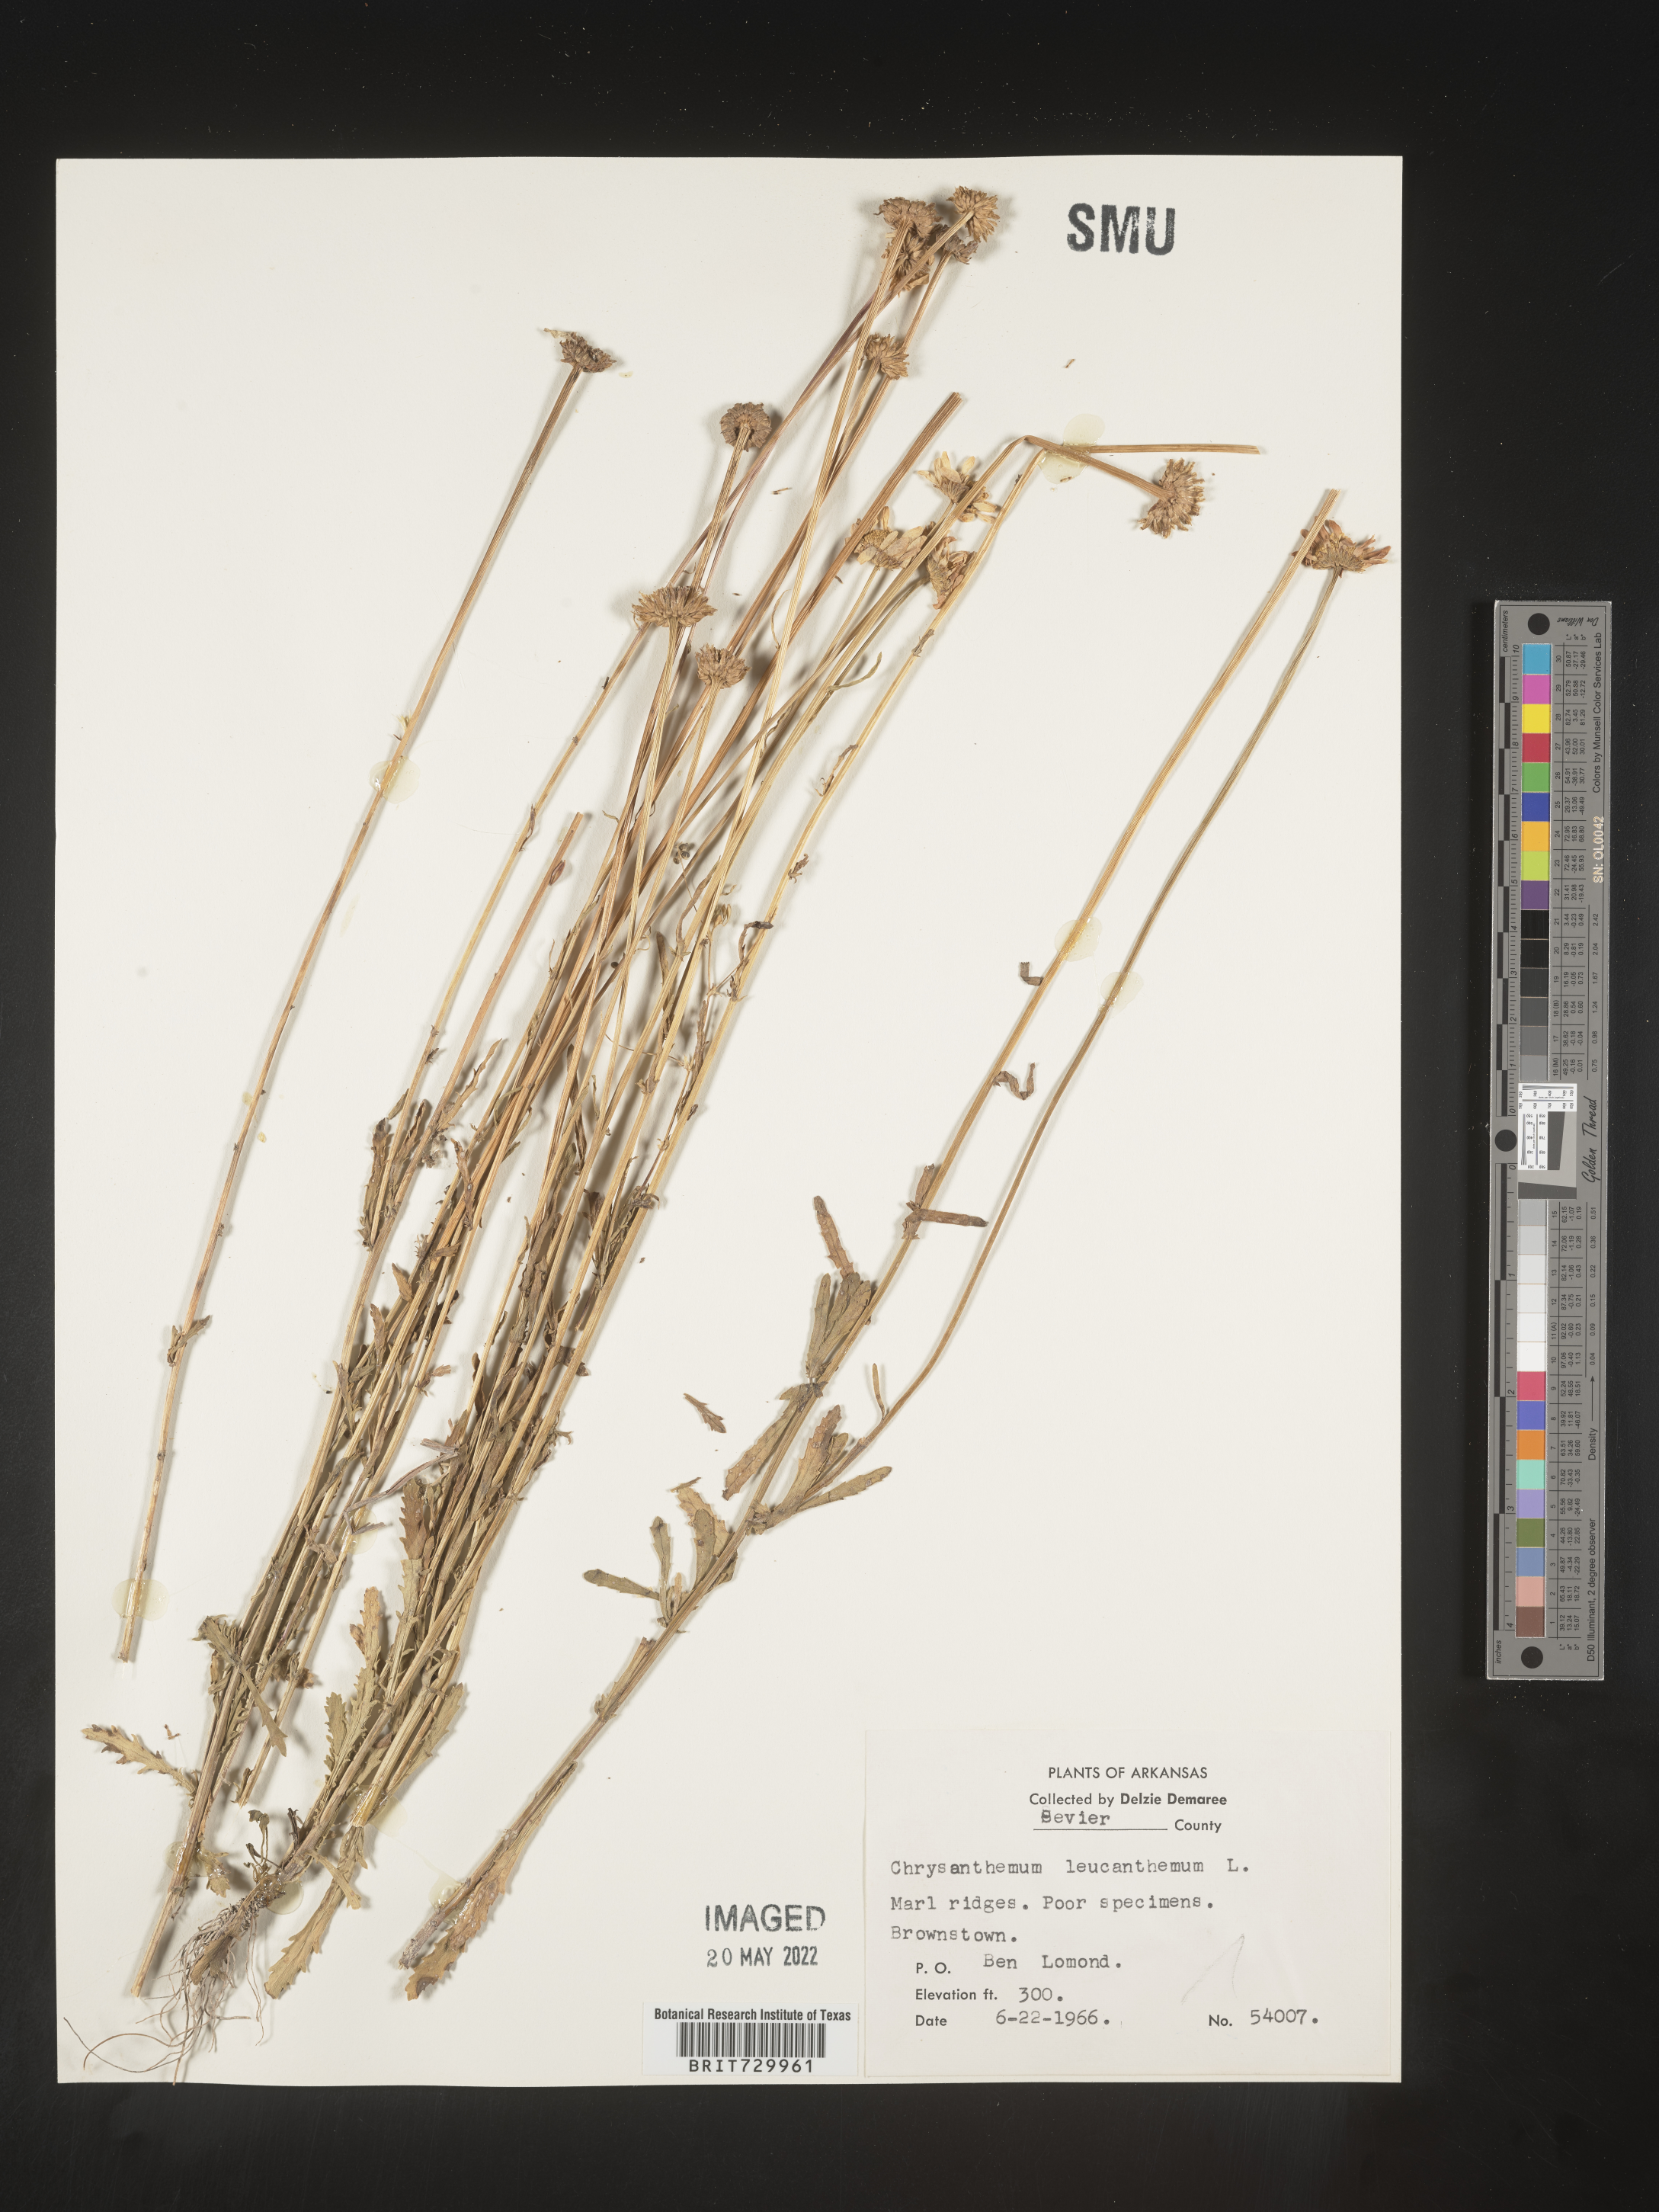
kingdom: Plantae
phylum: Tracheophyta
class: Magnoliopsida
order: Asterales
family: Asteraceae
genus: Leucanthemum
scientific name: Leucanthemum vulgare
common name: Oxeye daisy
